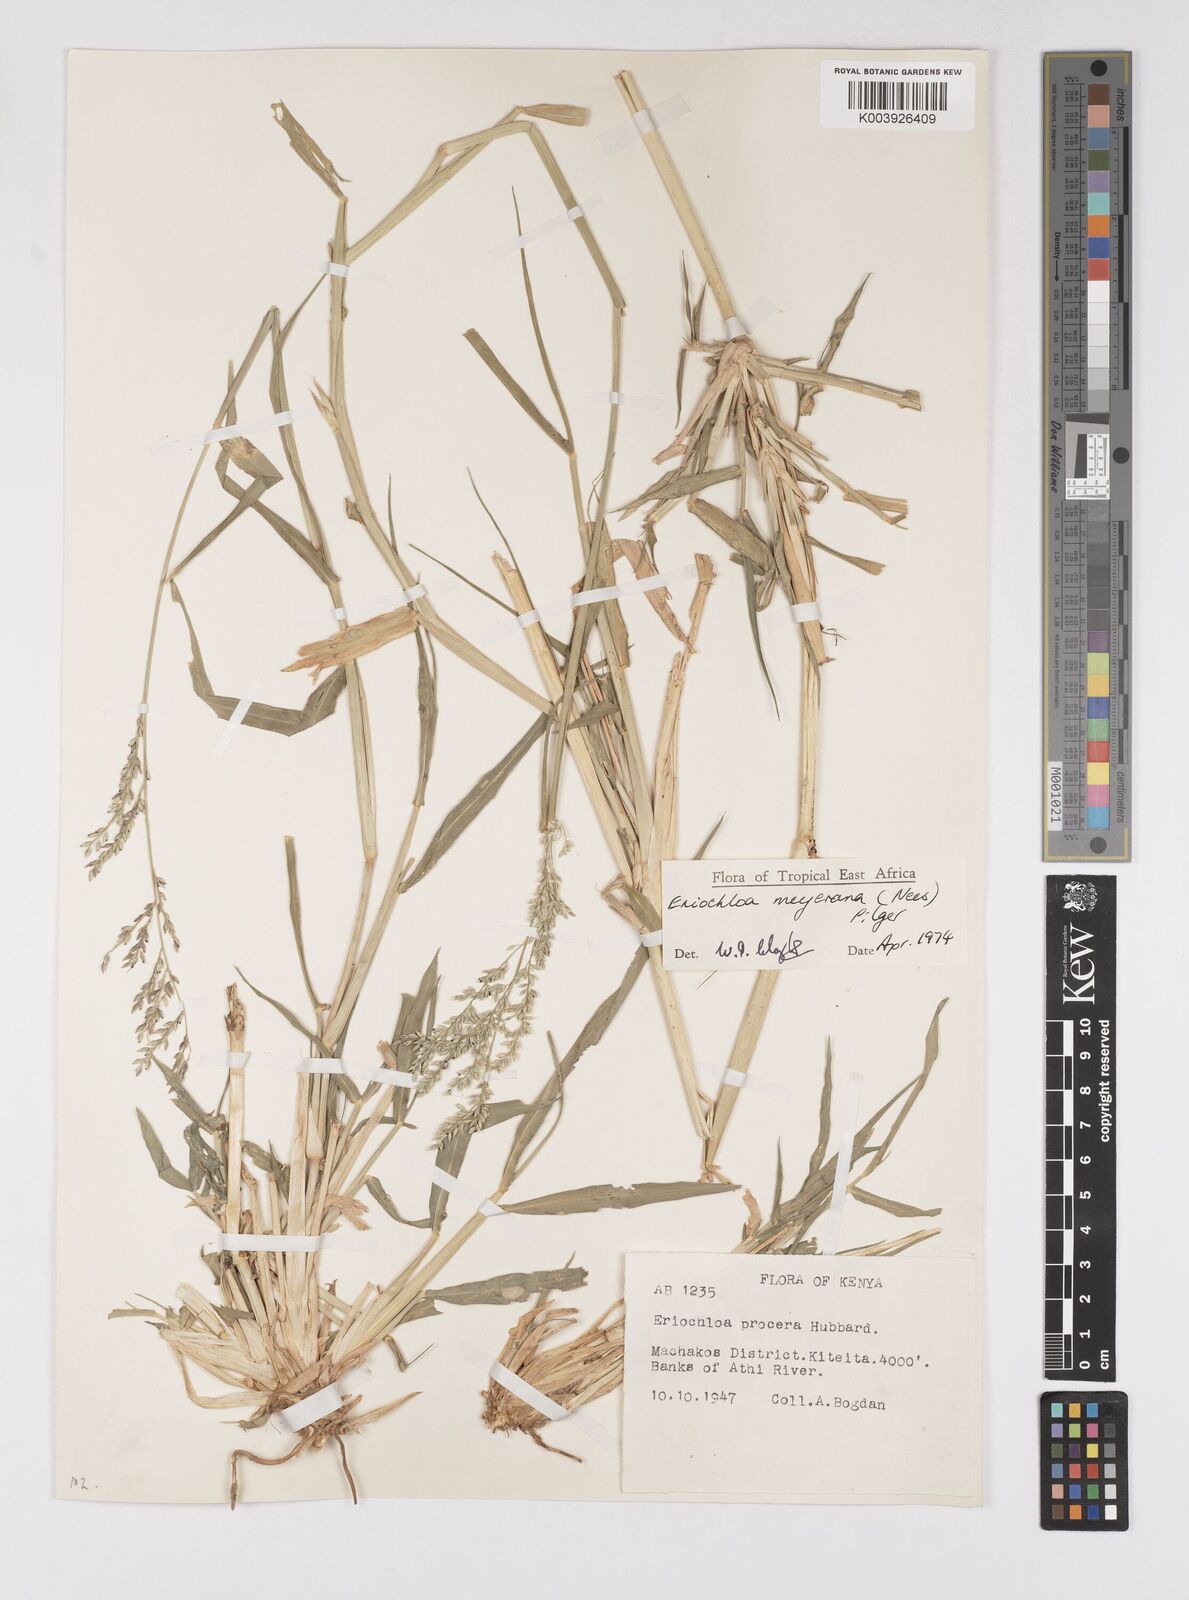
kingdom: Plantae
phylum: Tracheophyta
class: Liliopsida
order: Poales
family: Poaceae
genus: Eriochloa
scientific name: Eriochloa meyeriana
